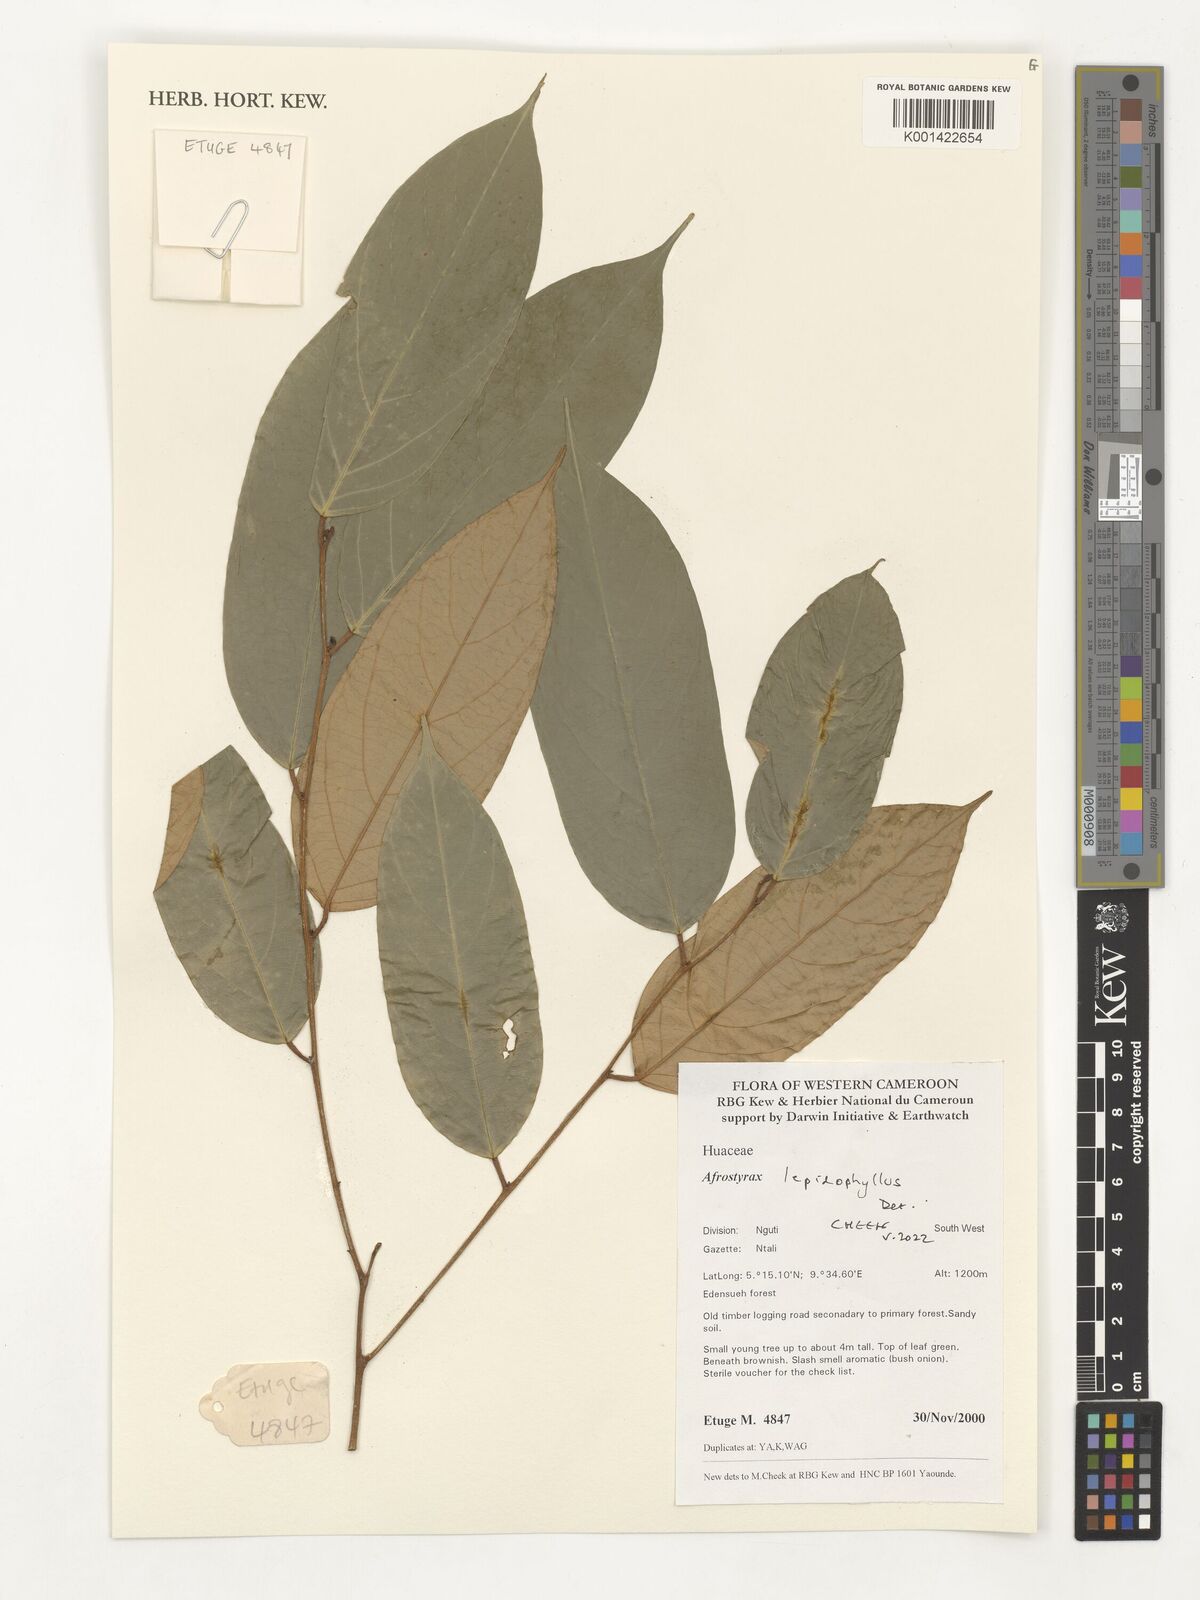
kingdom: Plantae
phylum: Tracheophyta
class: Magnoliopsida
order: Oxalidales
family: Huaceae
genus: Afrostyrax
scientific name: Afrostyrax lepidophyllus
